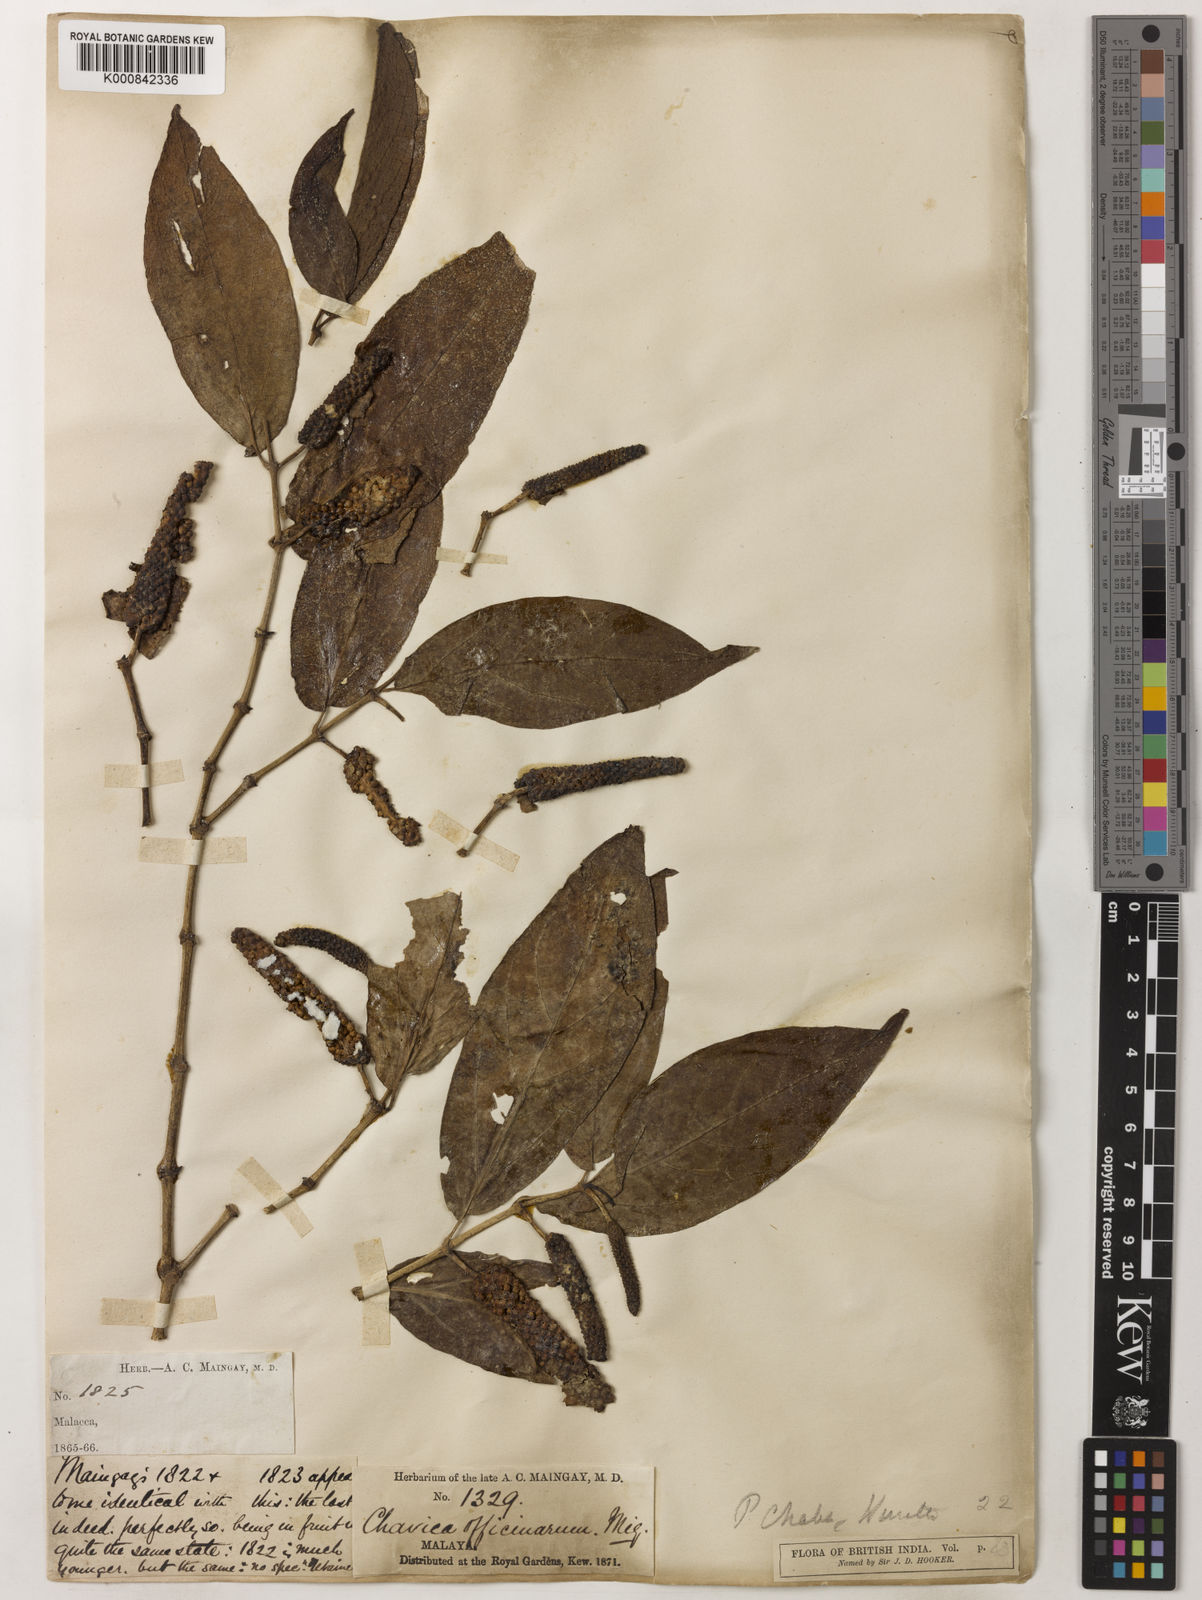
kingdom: Plantae
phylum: Tracheophyta
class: Magnoliopsida
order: Piperales
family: Piperaceae
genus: Piper
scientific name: Piper retrofractum
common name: Javanese long pepper
